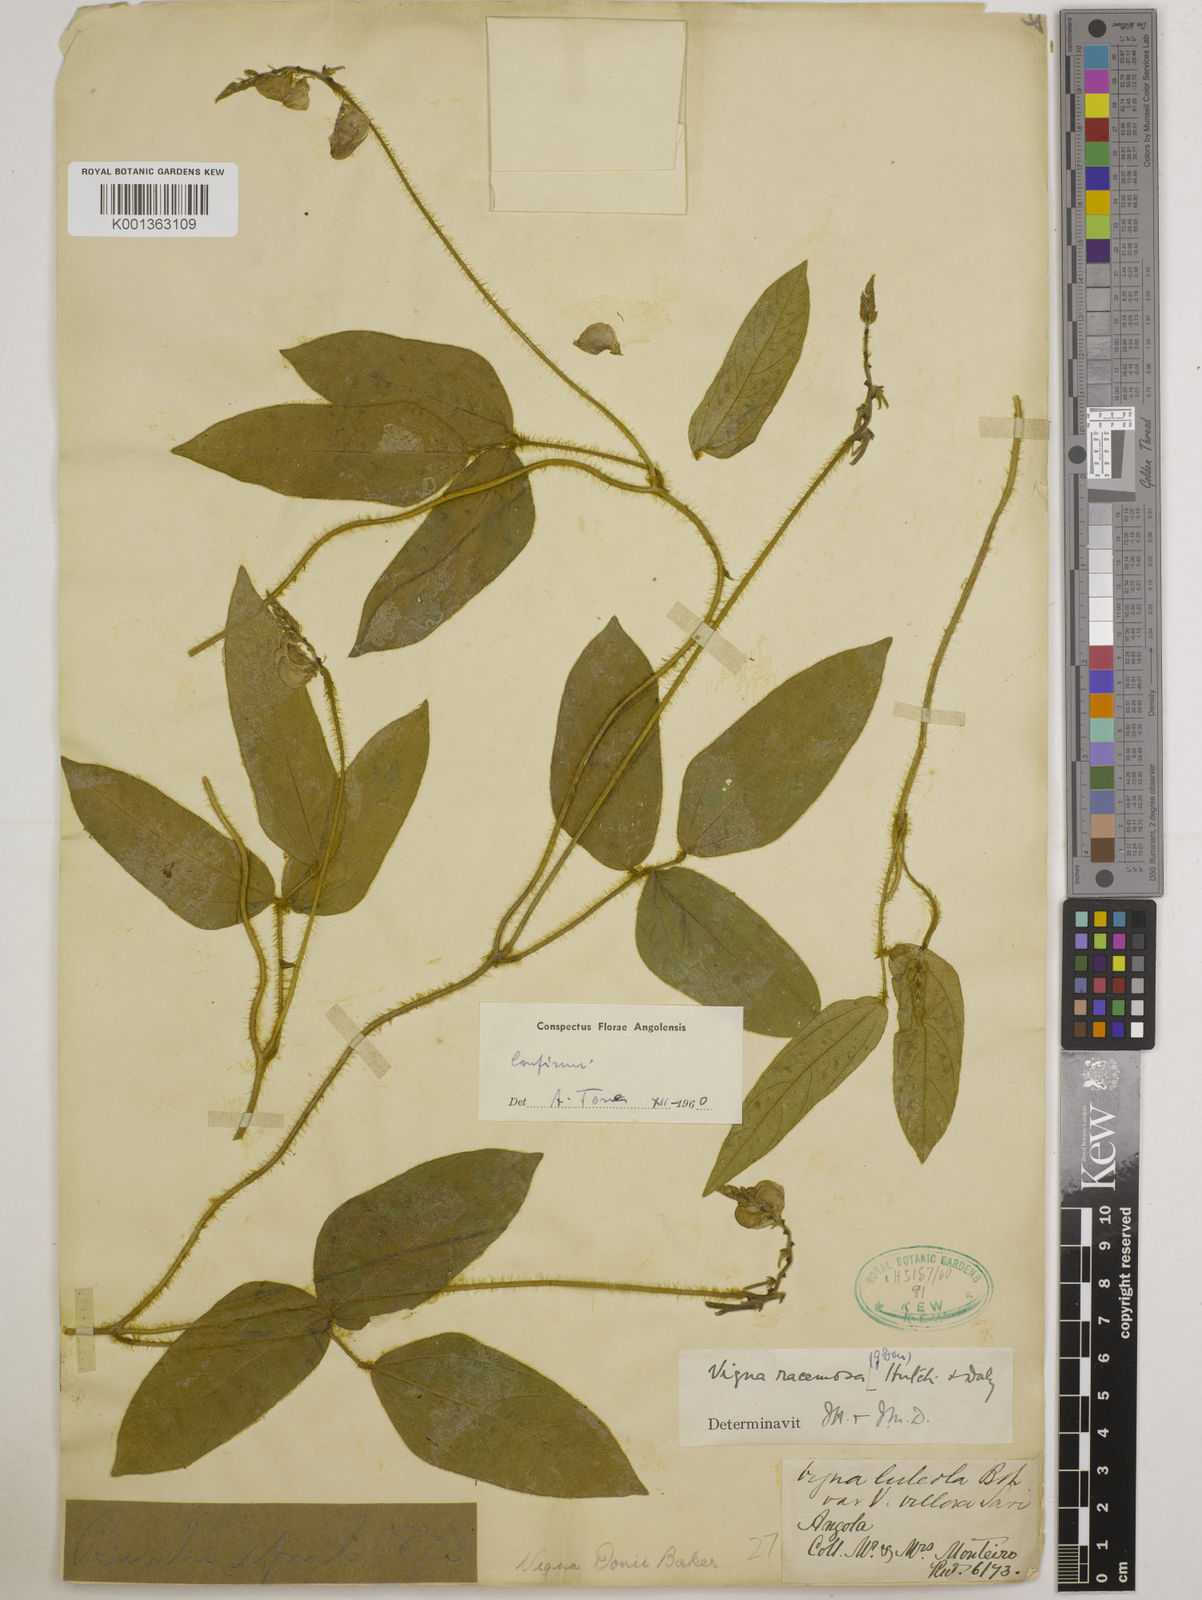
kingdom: Plantae
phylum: Tracheophyta
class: Magnoliopsida
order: Fabales
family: Fabaceae
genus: Vigna
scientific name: Vigna racemosa
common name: Beans not eaten
